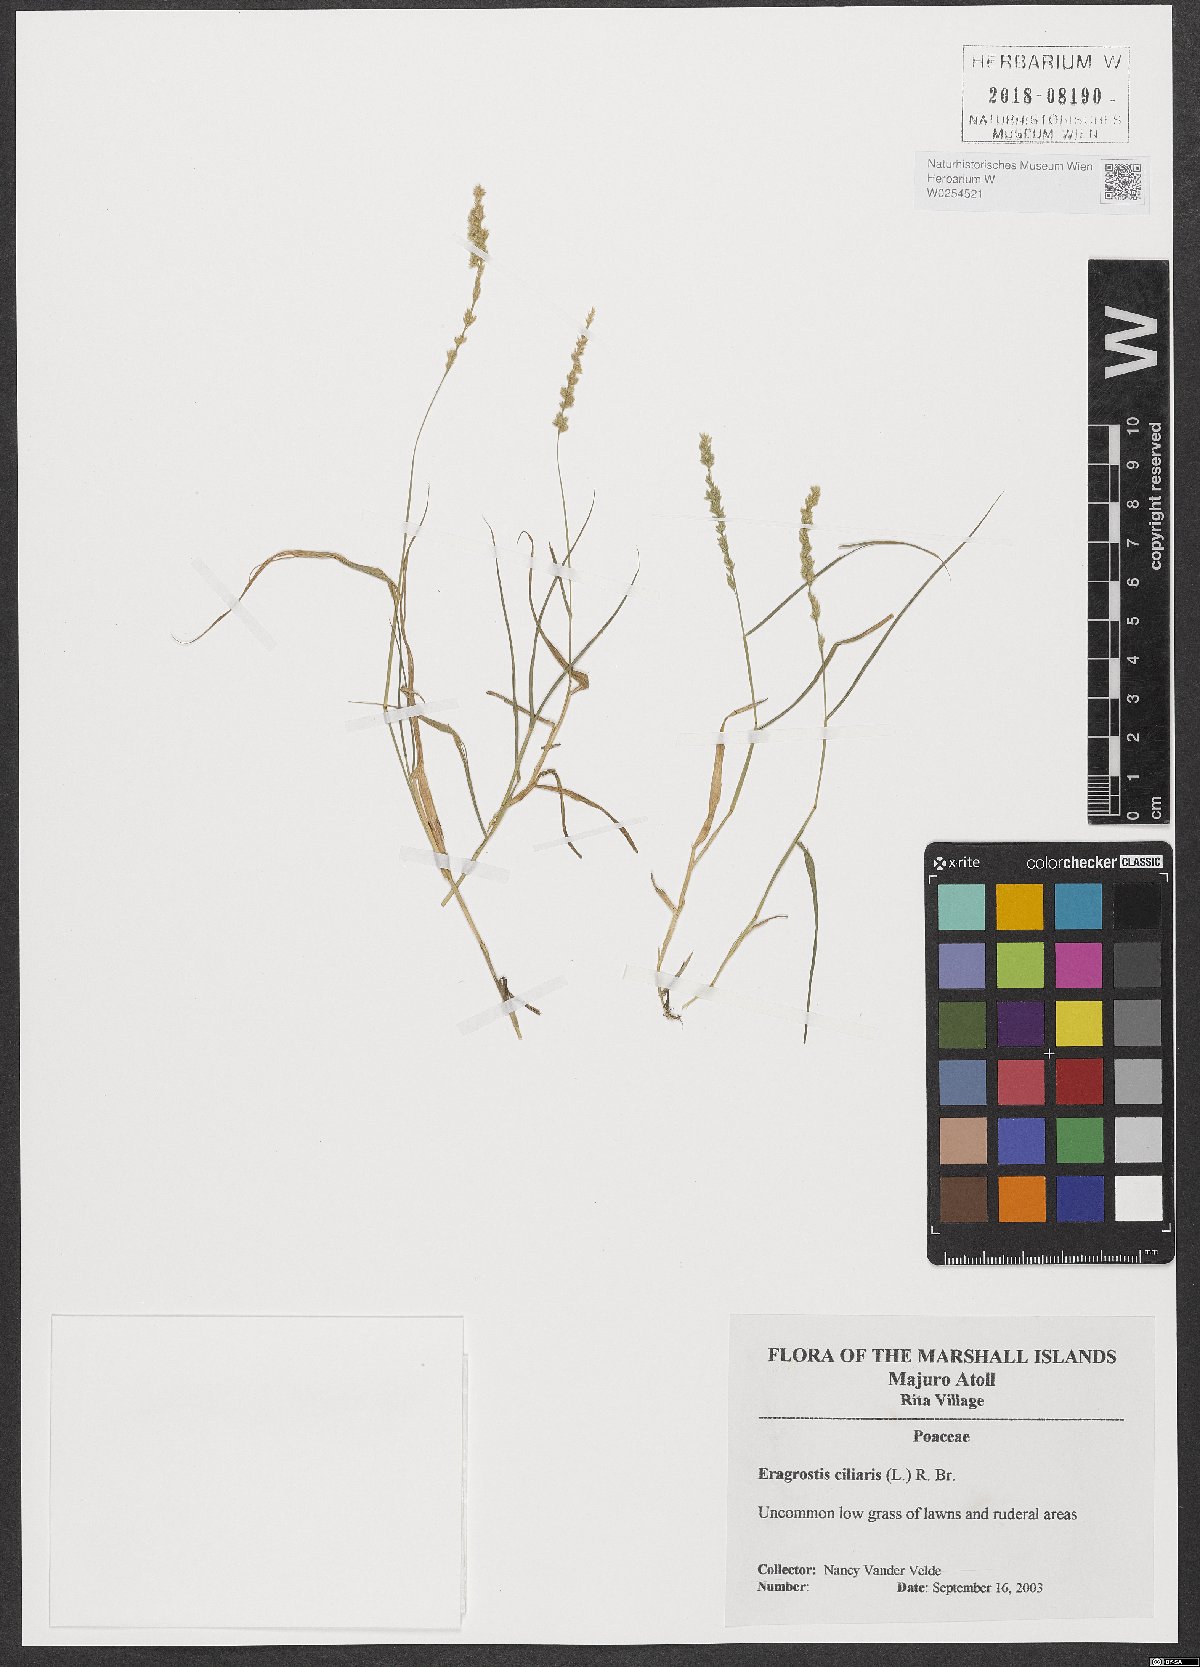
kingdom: Plantae
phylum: Tracheophyta
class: Liliopsida
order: Poales
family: Poaceae
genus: Eragrostis
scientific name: Eragrostis ciliaris
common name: Gophertail lovegrass
